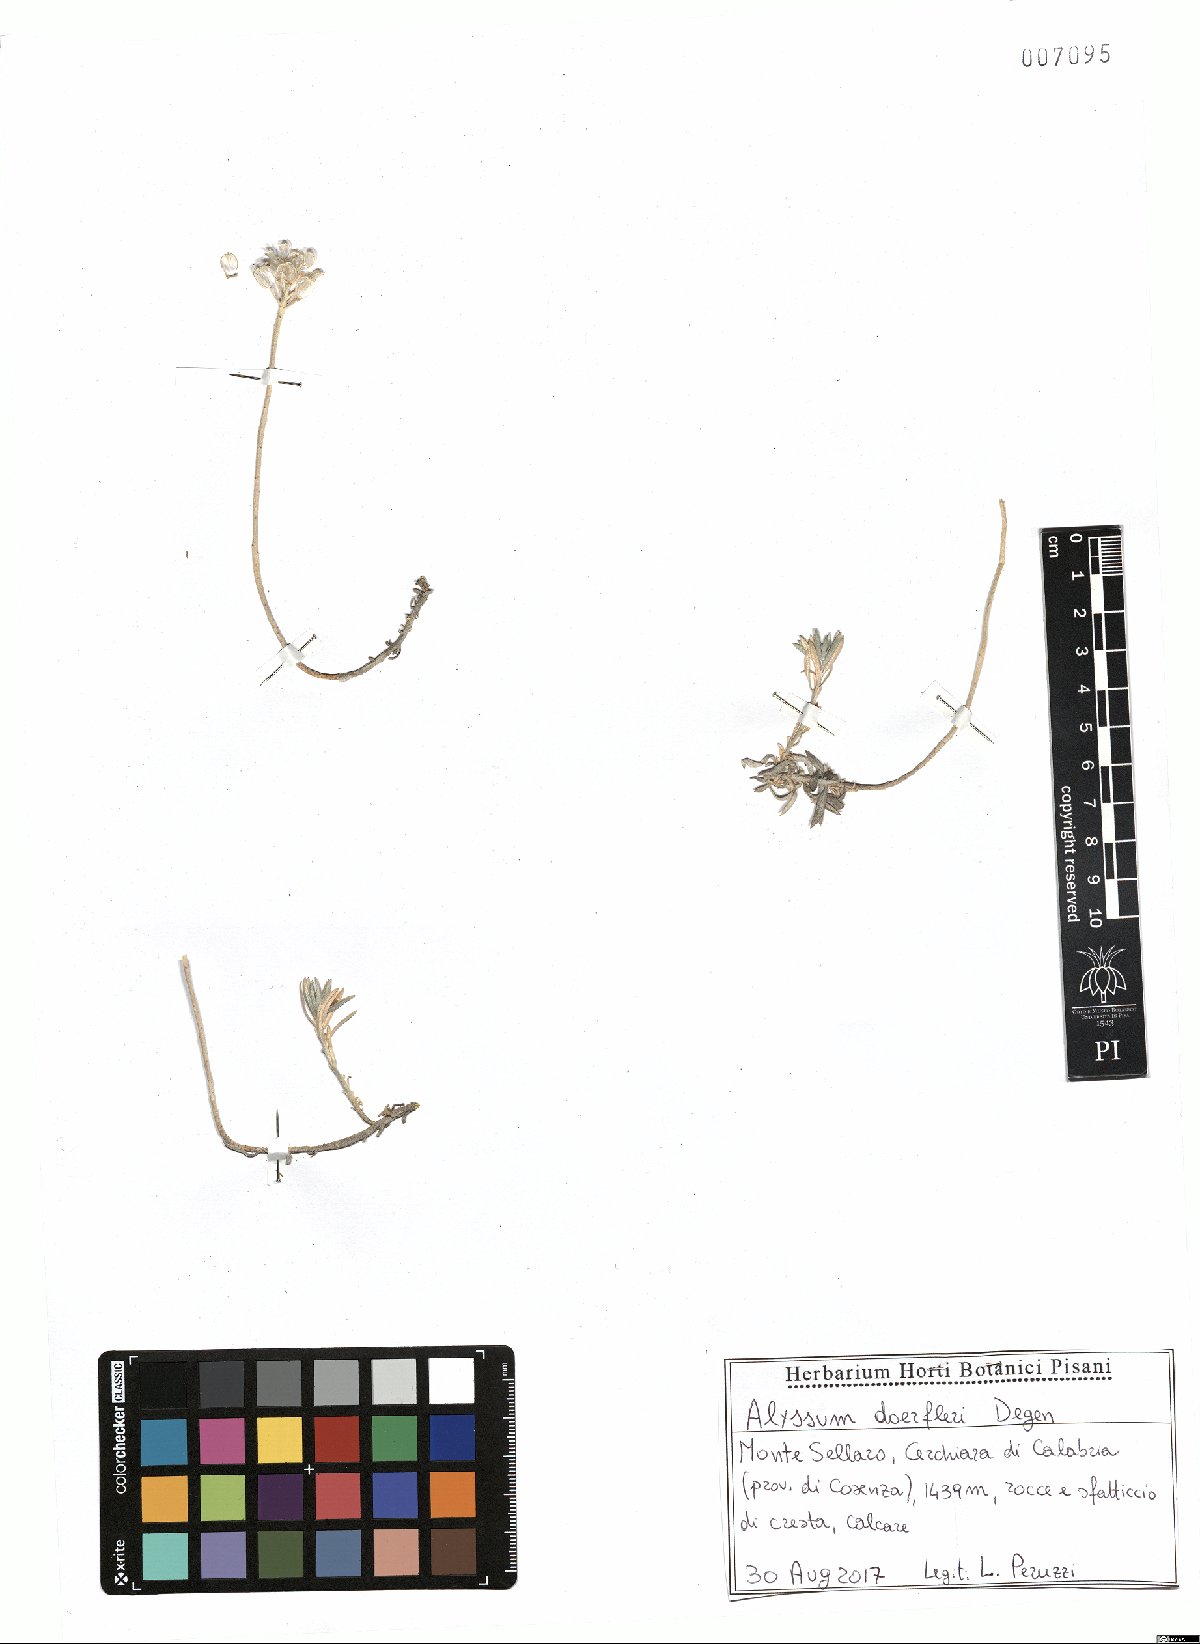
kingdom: Plantae
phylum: Tracheophyta
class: Magnoliopsida
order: Brassicales
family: Brassicaceae
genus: Alyssum
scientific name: Alyssum doerfleri
